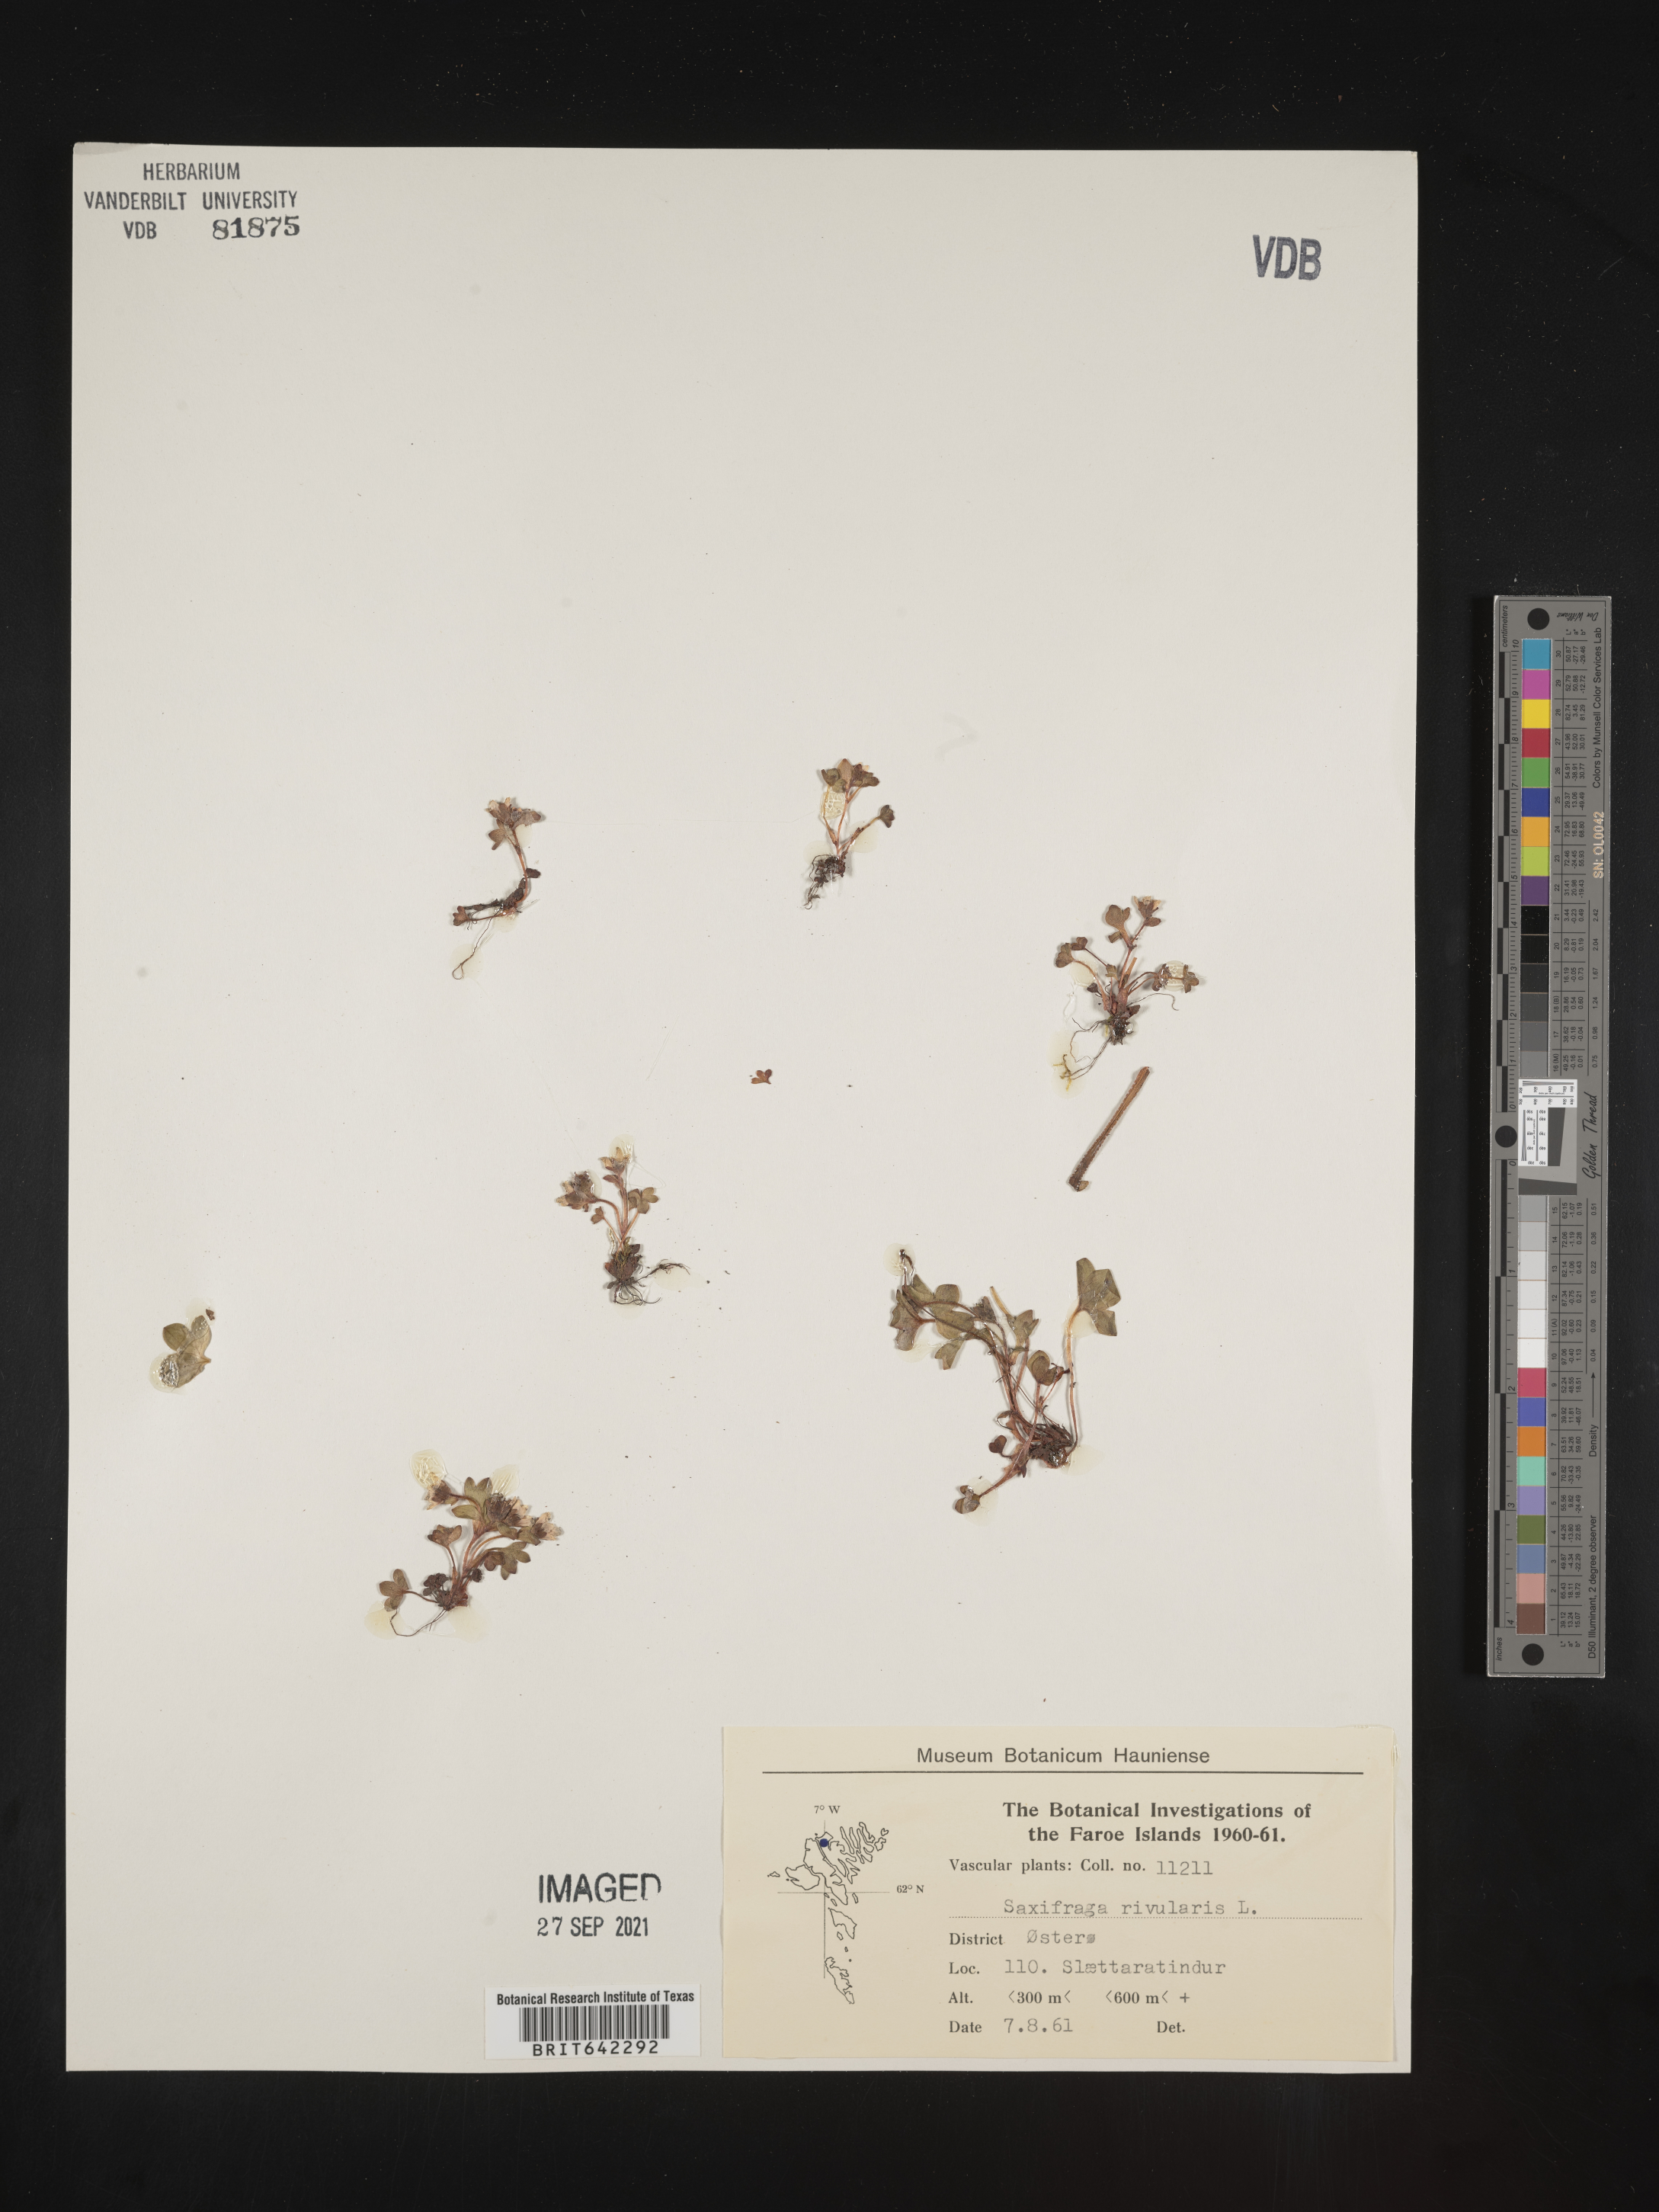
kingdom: Plantae
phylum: Tracheophyta
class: Magnoliopsida
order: Saxifragales
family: Saxifragaceae
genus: Saxifraga
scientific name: Saxifraga
